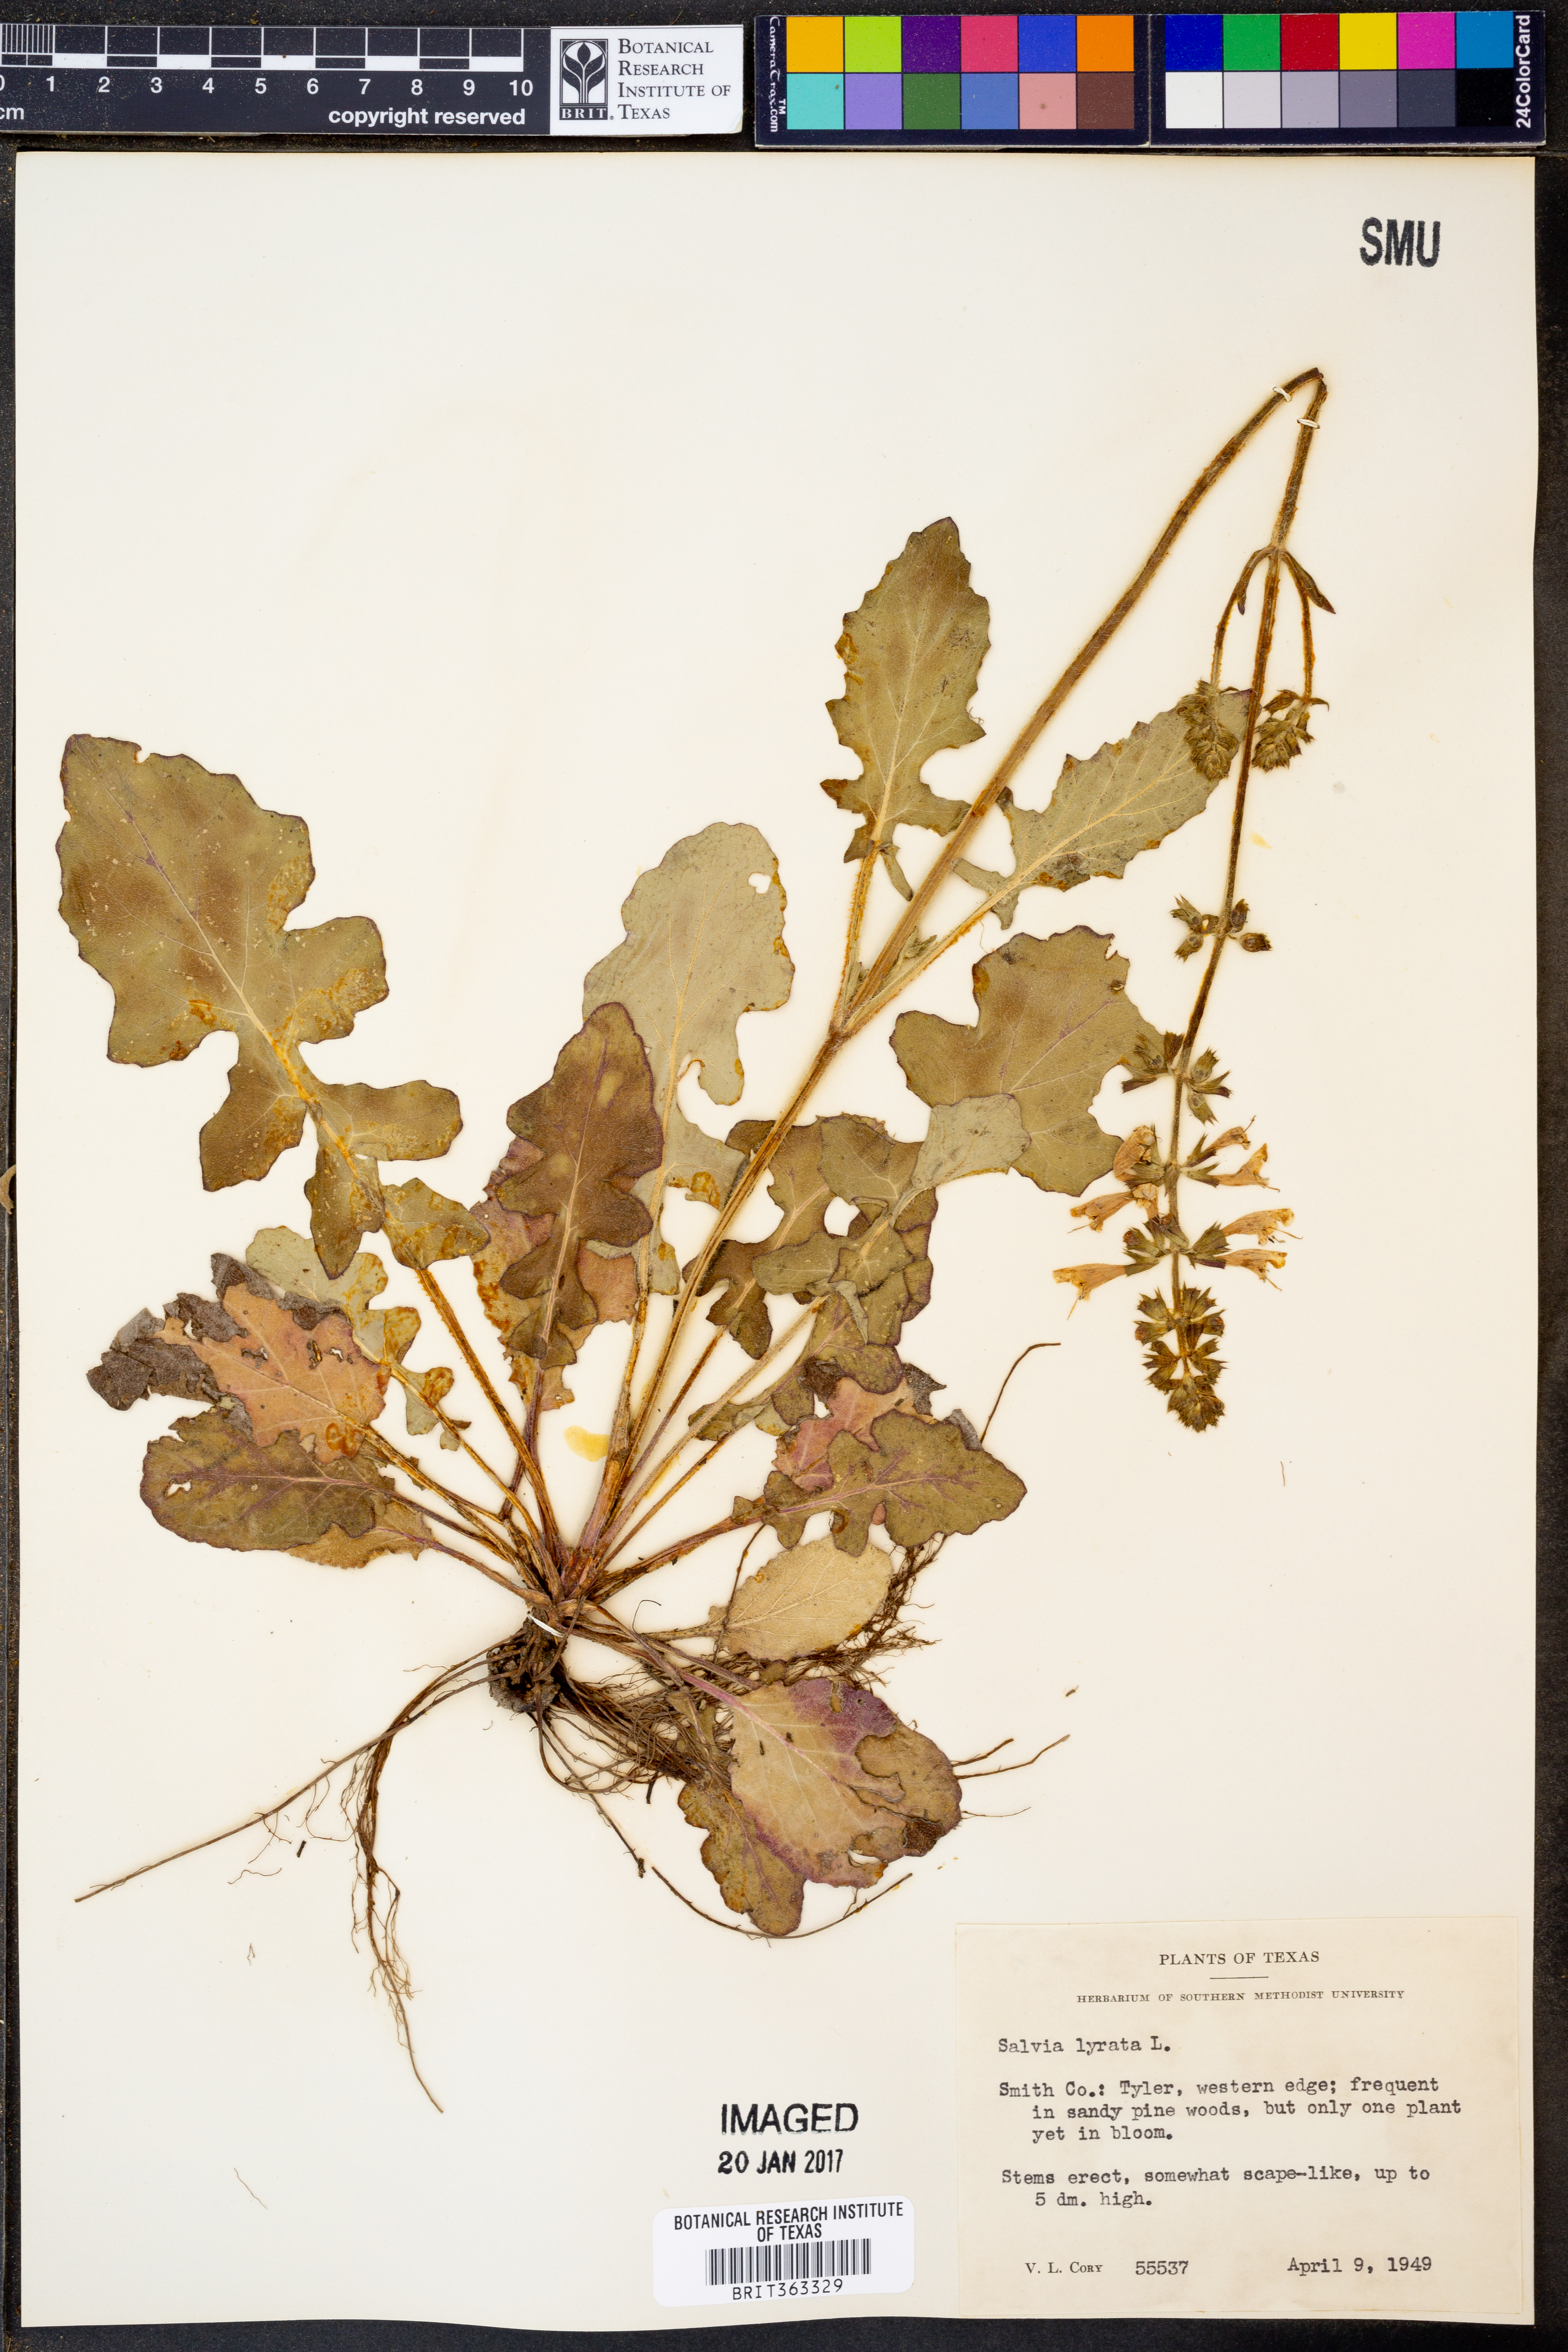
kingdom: Plantae
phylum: Tracheophyta
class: Magnoliopsida
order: Lamiales
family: Lamiaceae
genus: Salvia
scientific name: Salvia lyrata
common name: Cancerweed
